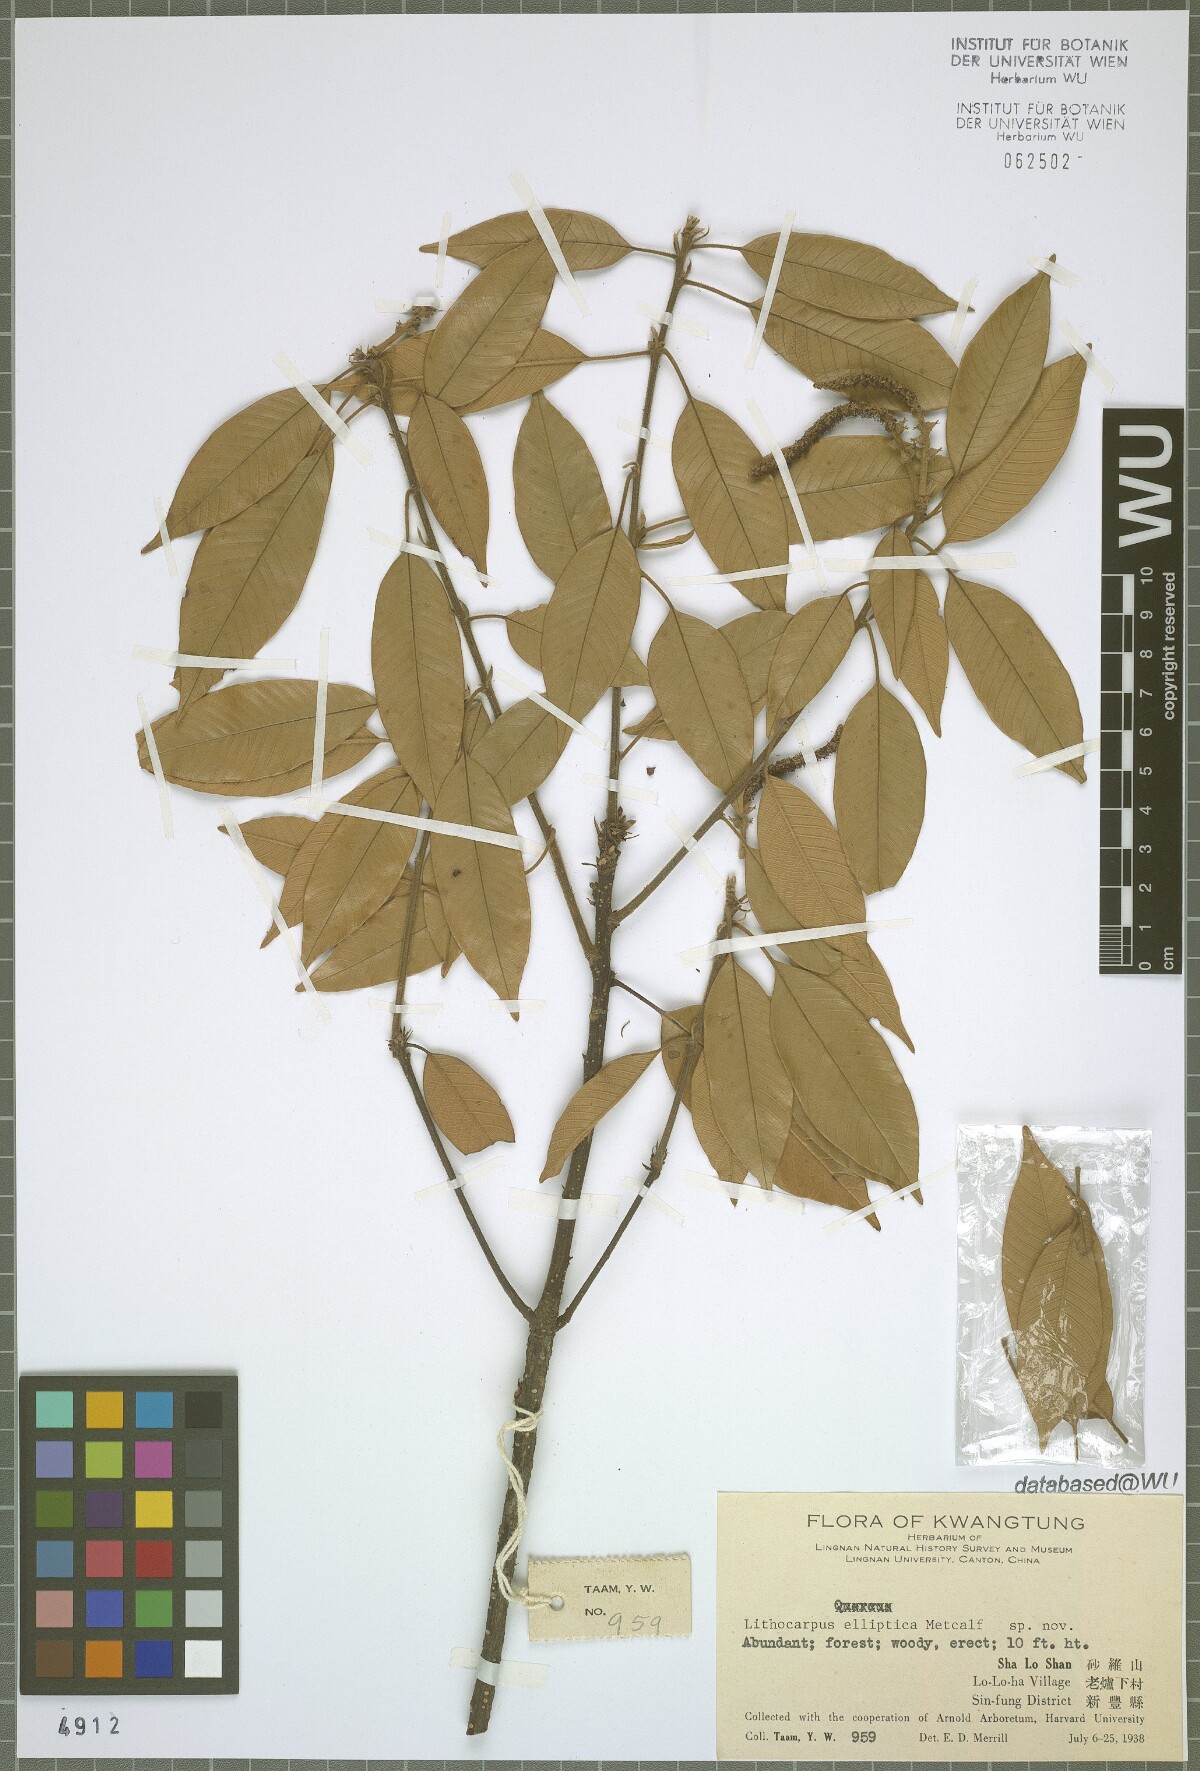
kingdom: Plantae
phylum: Tracheophyta
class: Magnoliopsida
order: Fagales
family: Fagaceae
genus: Lithocarpus
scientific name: Lithocarpus uvariifolius
